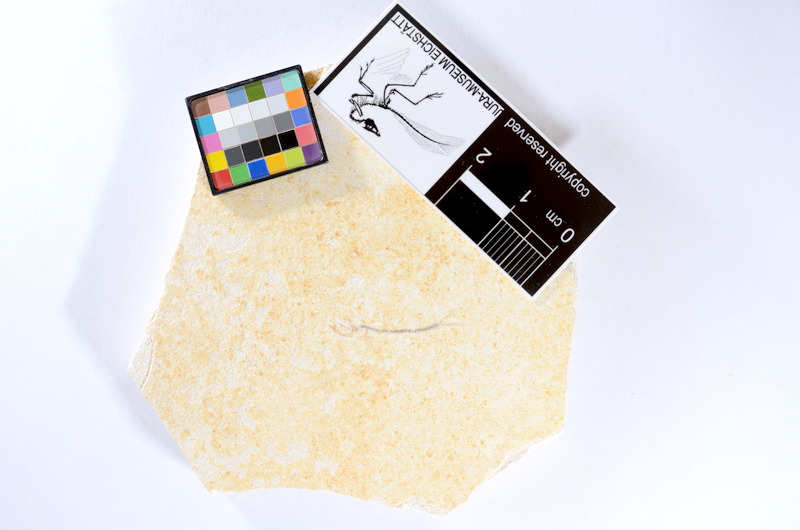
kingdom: Animalia
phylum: Chordata
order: Salmoniformes
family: Orthogonikleithridae
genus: Orthogonikleithrus
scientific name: Orthogonikleithrus hoelli
